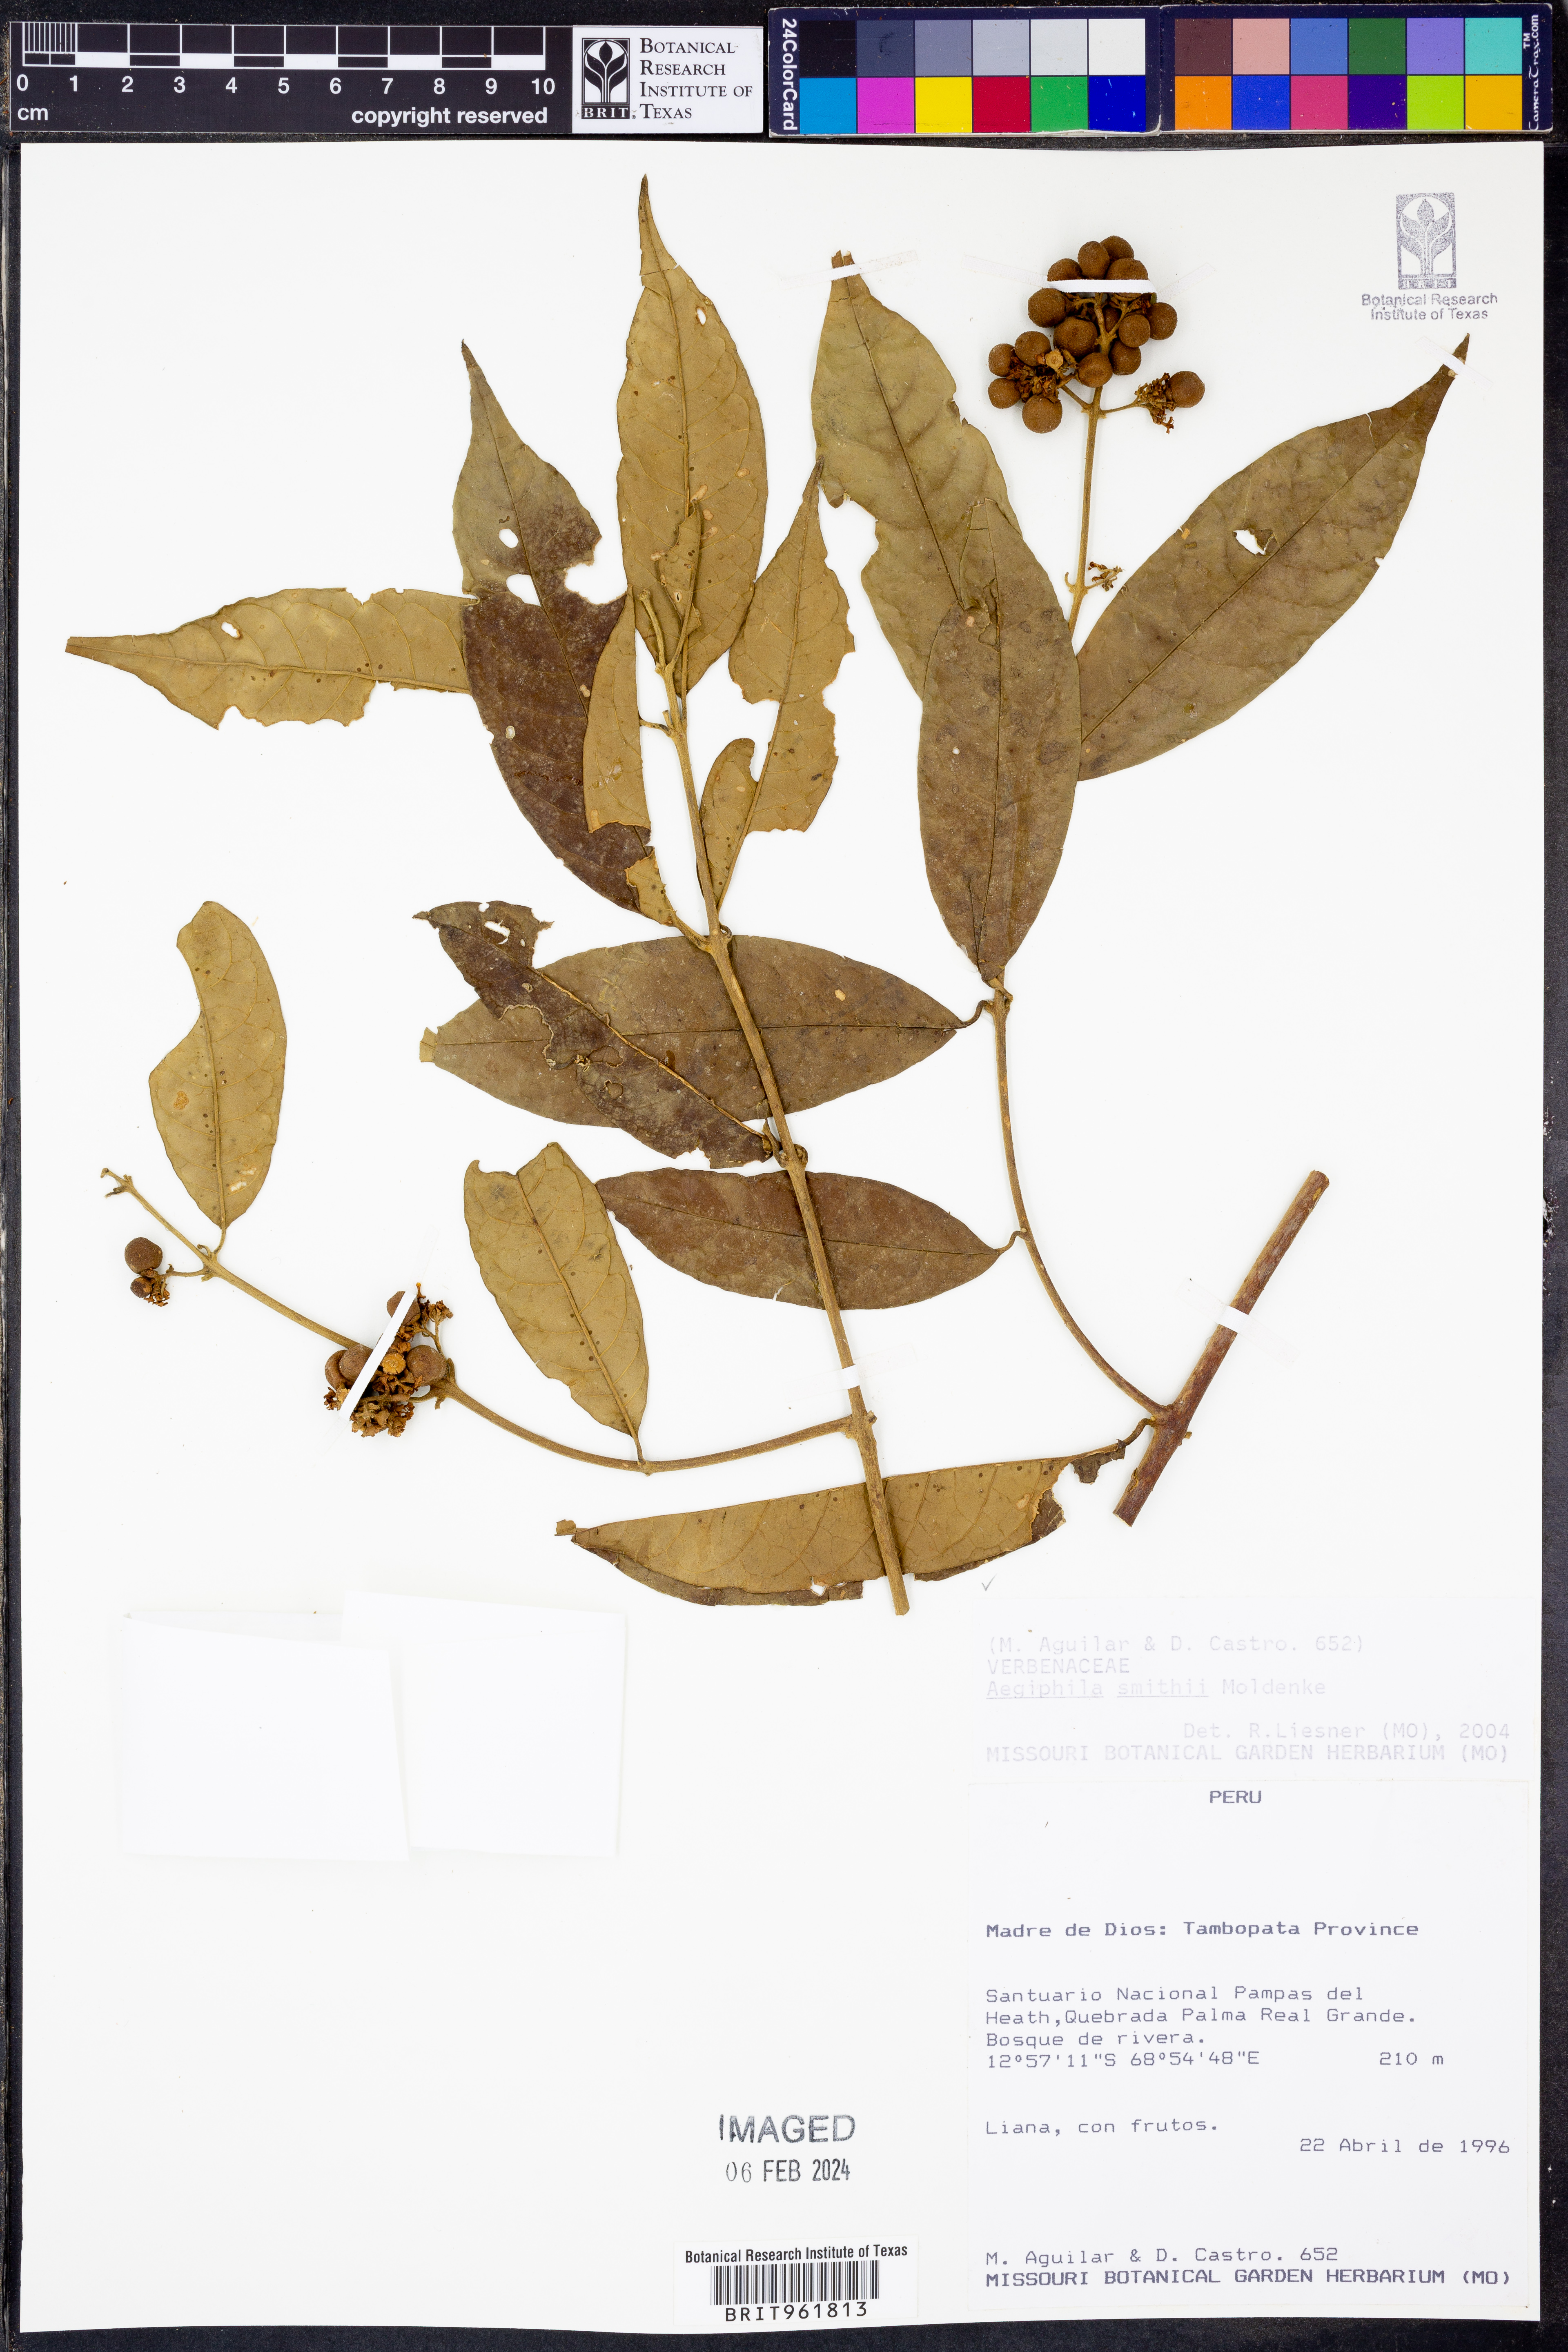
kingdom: Plantae
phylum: Tracheophyta
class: Magnoliopsida
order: Lamiales
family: Lamiaceae
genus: Aegiphila
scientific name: Aegiphila
